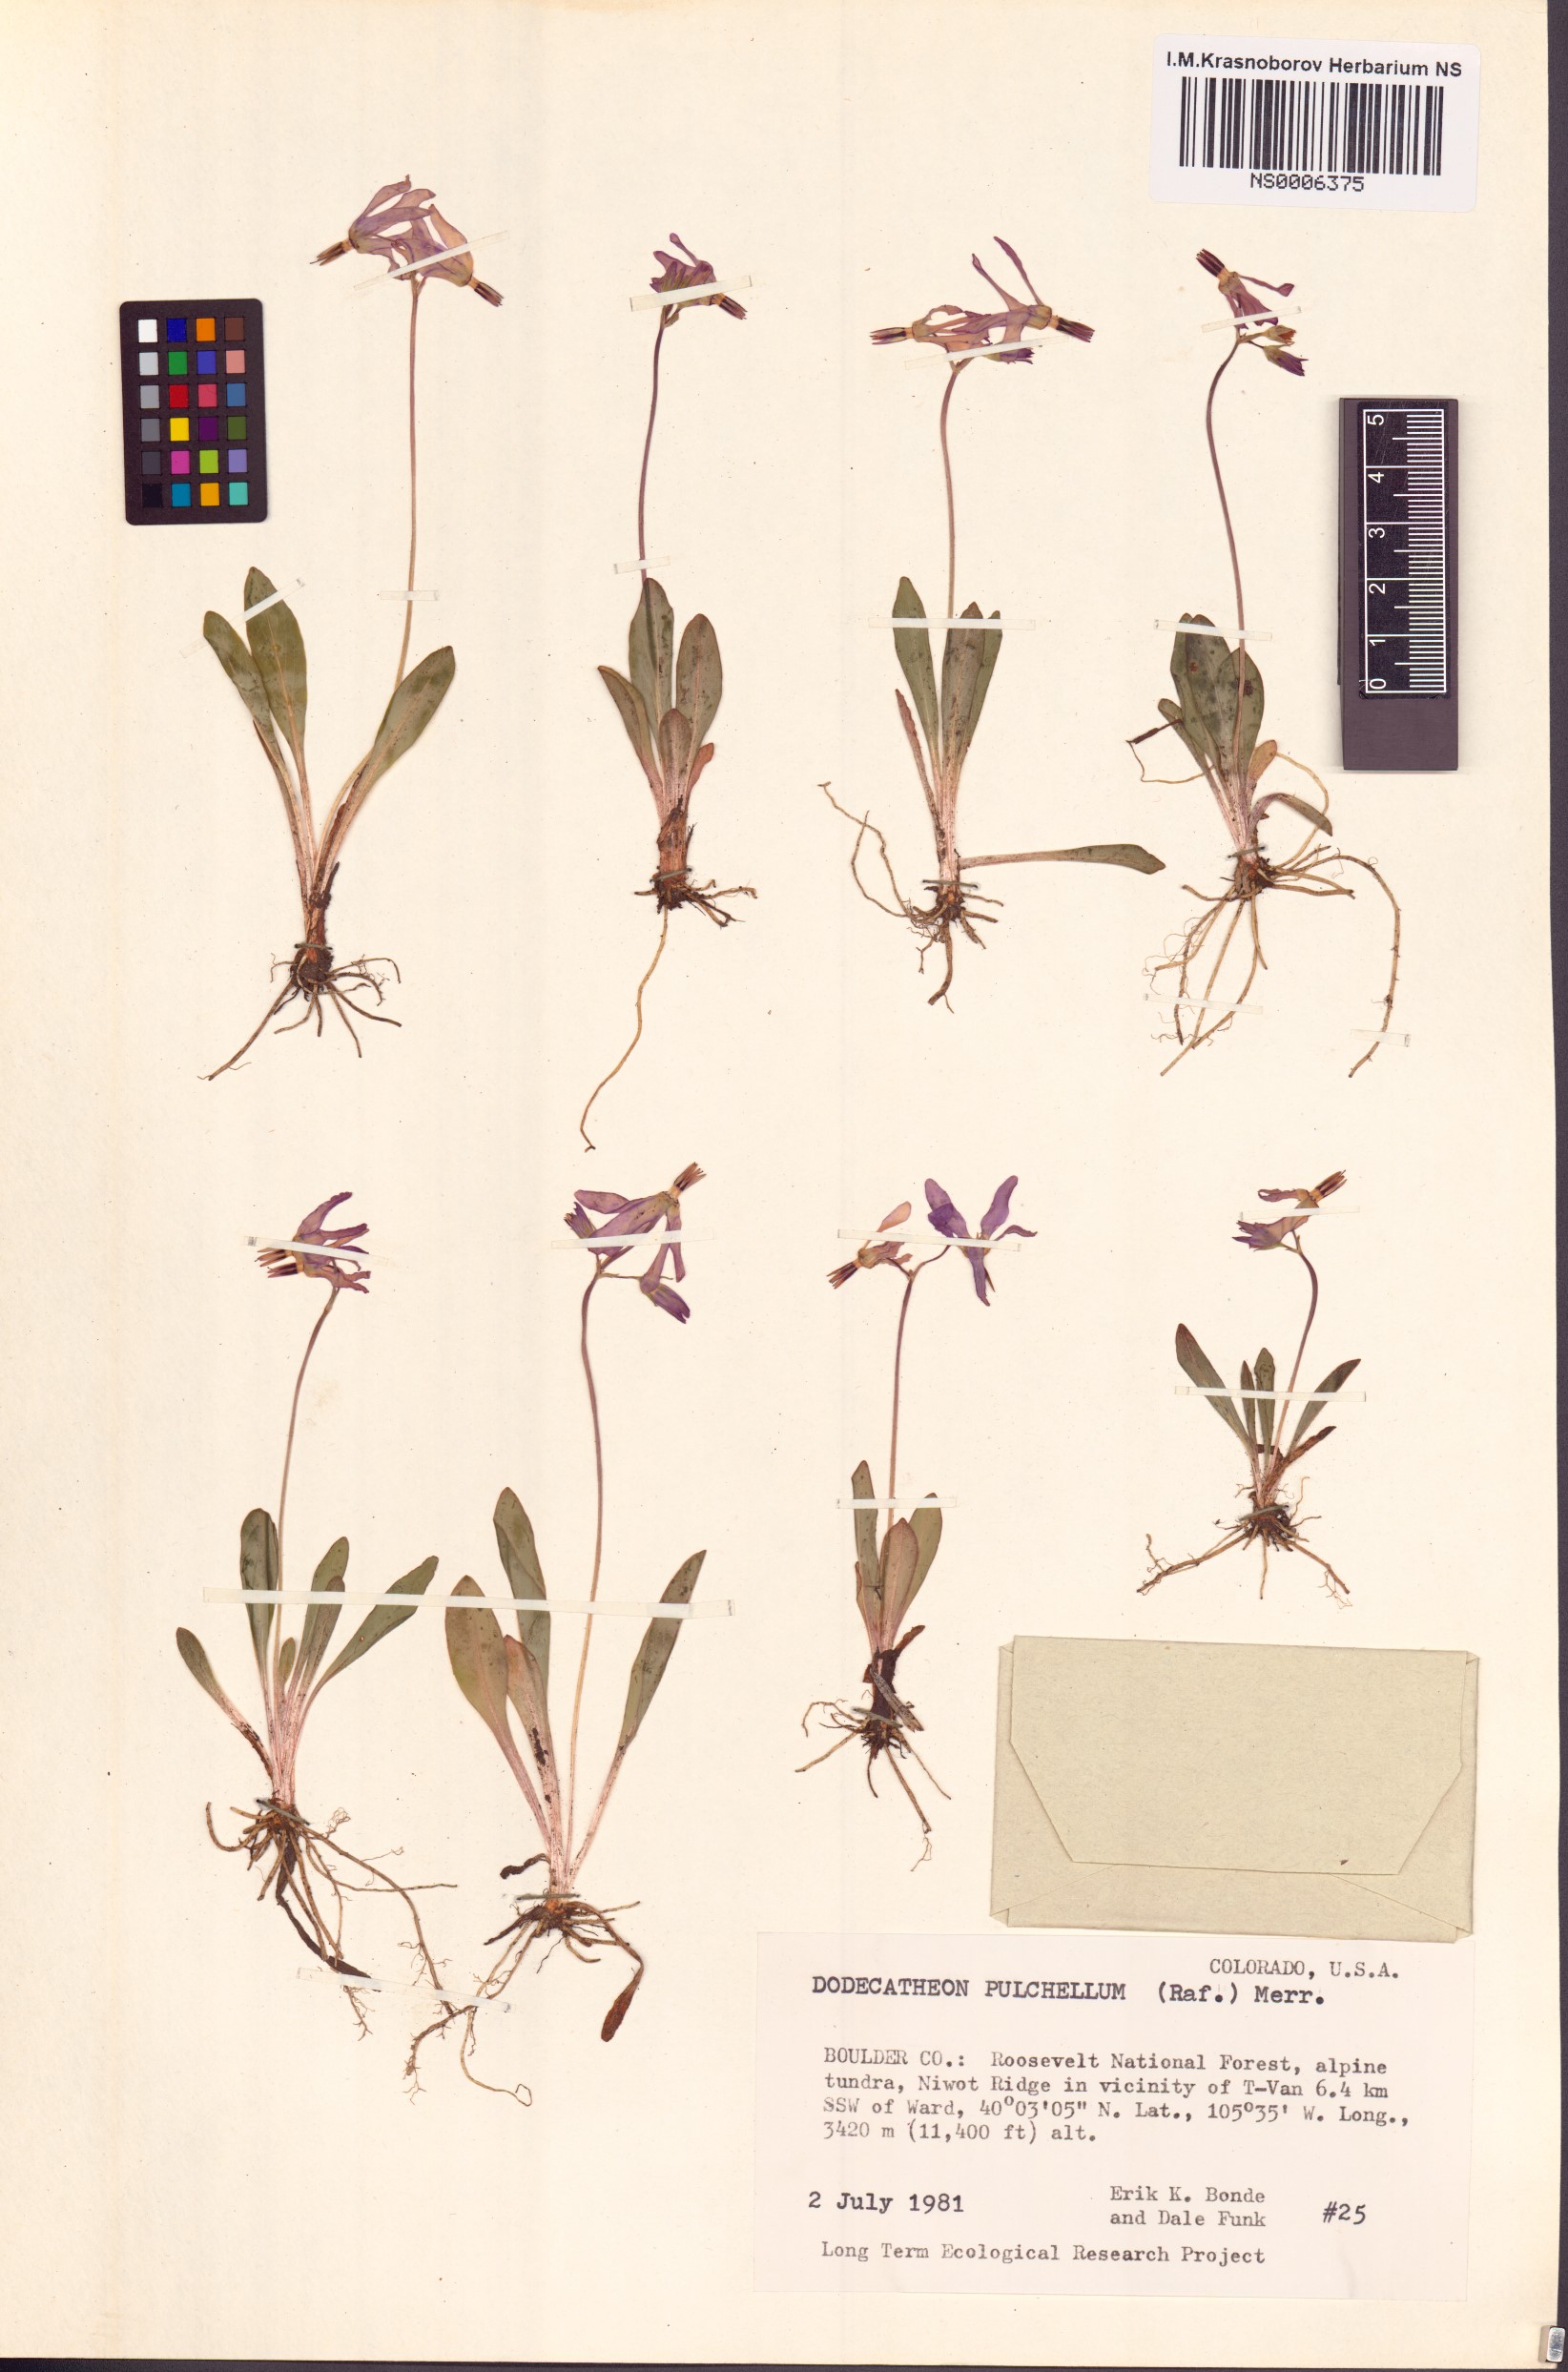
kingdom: Plantae
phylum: Tracheophyta
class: Magnoliopsida
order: Ericales
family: Primulaceae
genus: Dodecatheon
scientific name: Dodecatheon pulchellum
